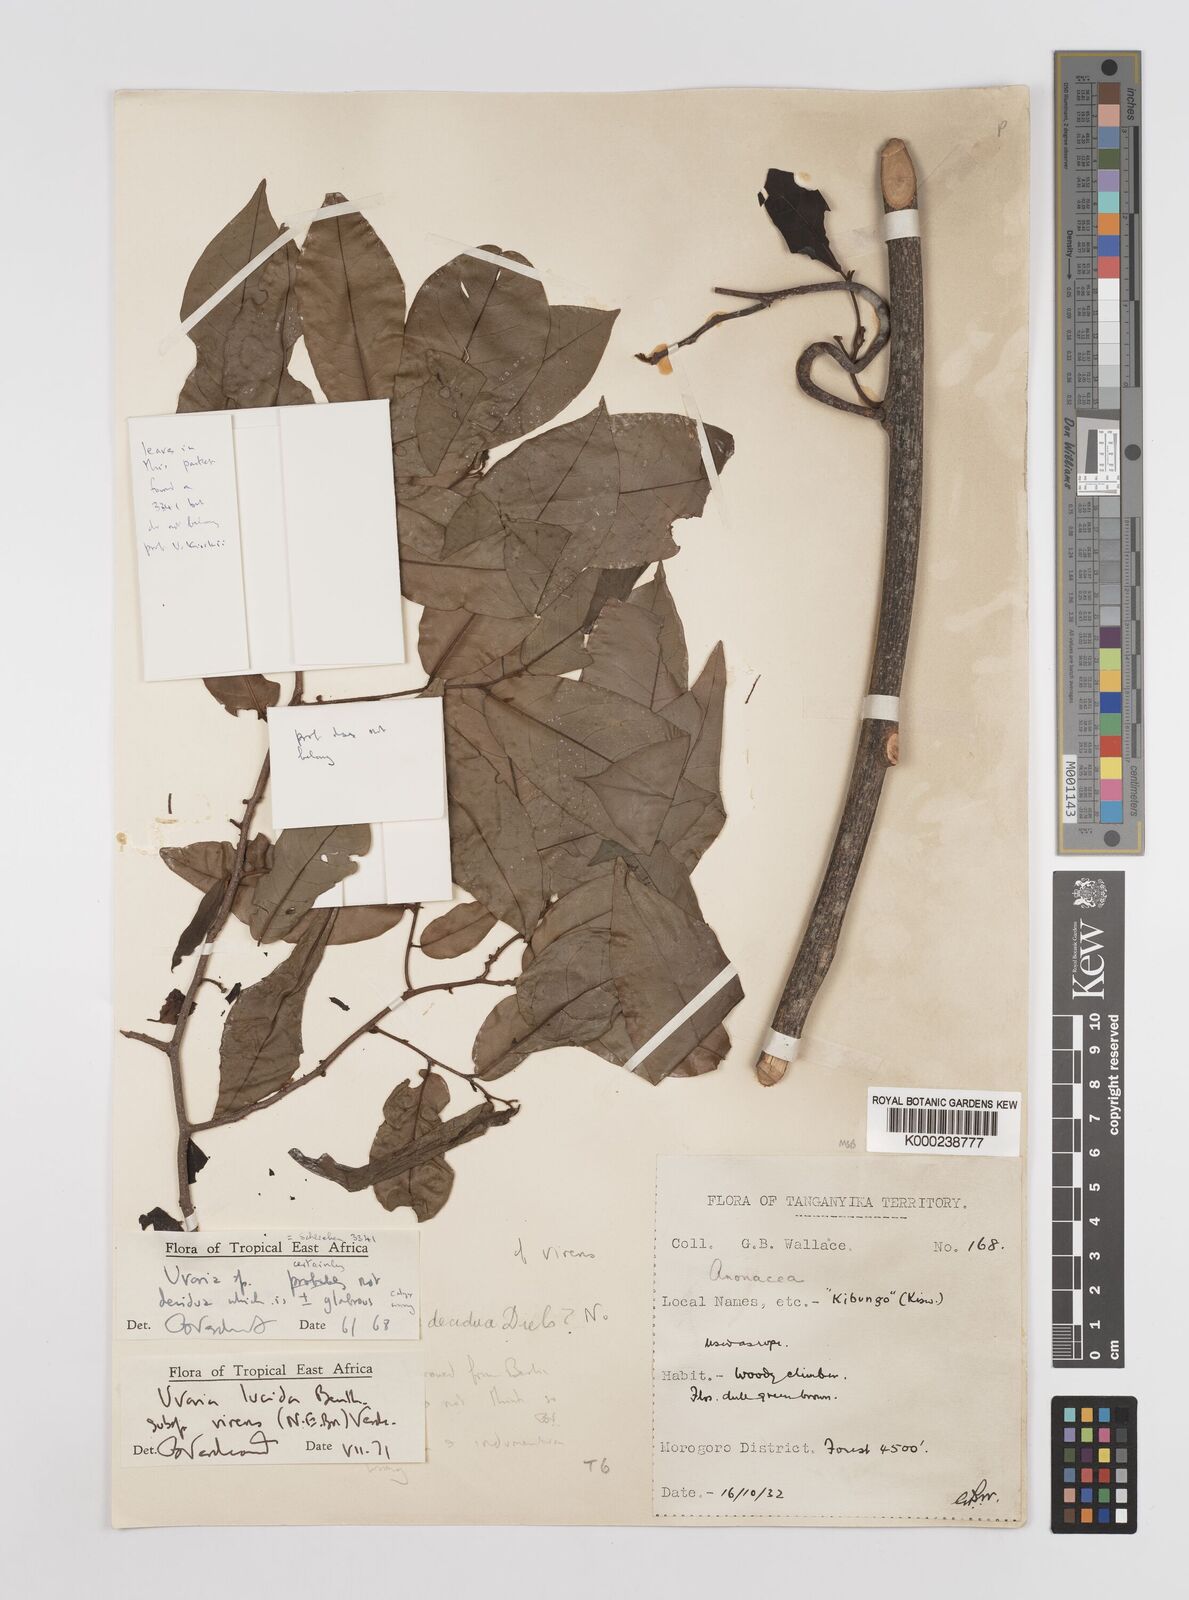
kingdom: Plantae
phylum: Tracheophyta
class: Magnoliopsida
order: Magnoliales
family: Annonaceae
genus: Uvaria
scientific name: Uvaria lucida
